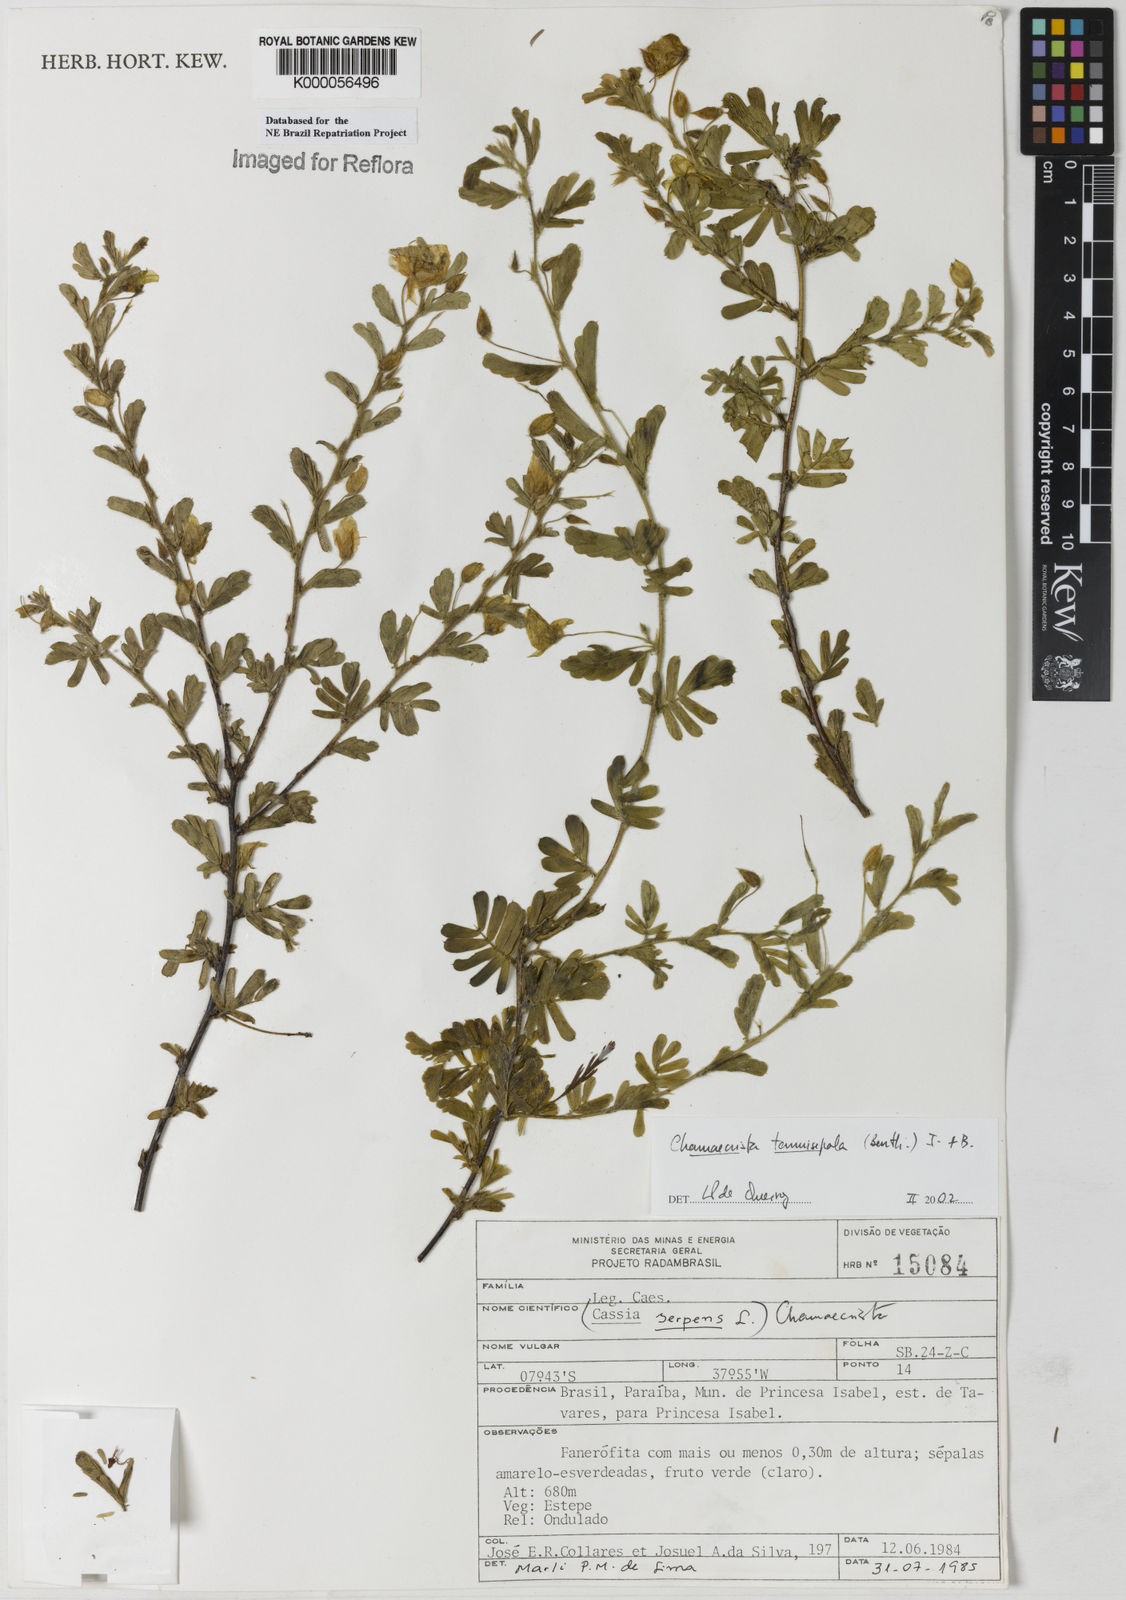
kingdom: Plantae
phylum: Tracheophyta
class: Magnoliopsida
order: Fabales
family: Fabaceae
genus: Chamaecrista
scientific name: Chamaecrista tenuisepala
